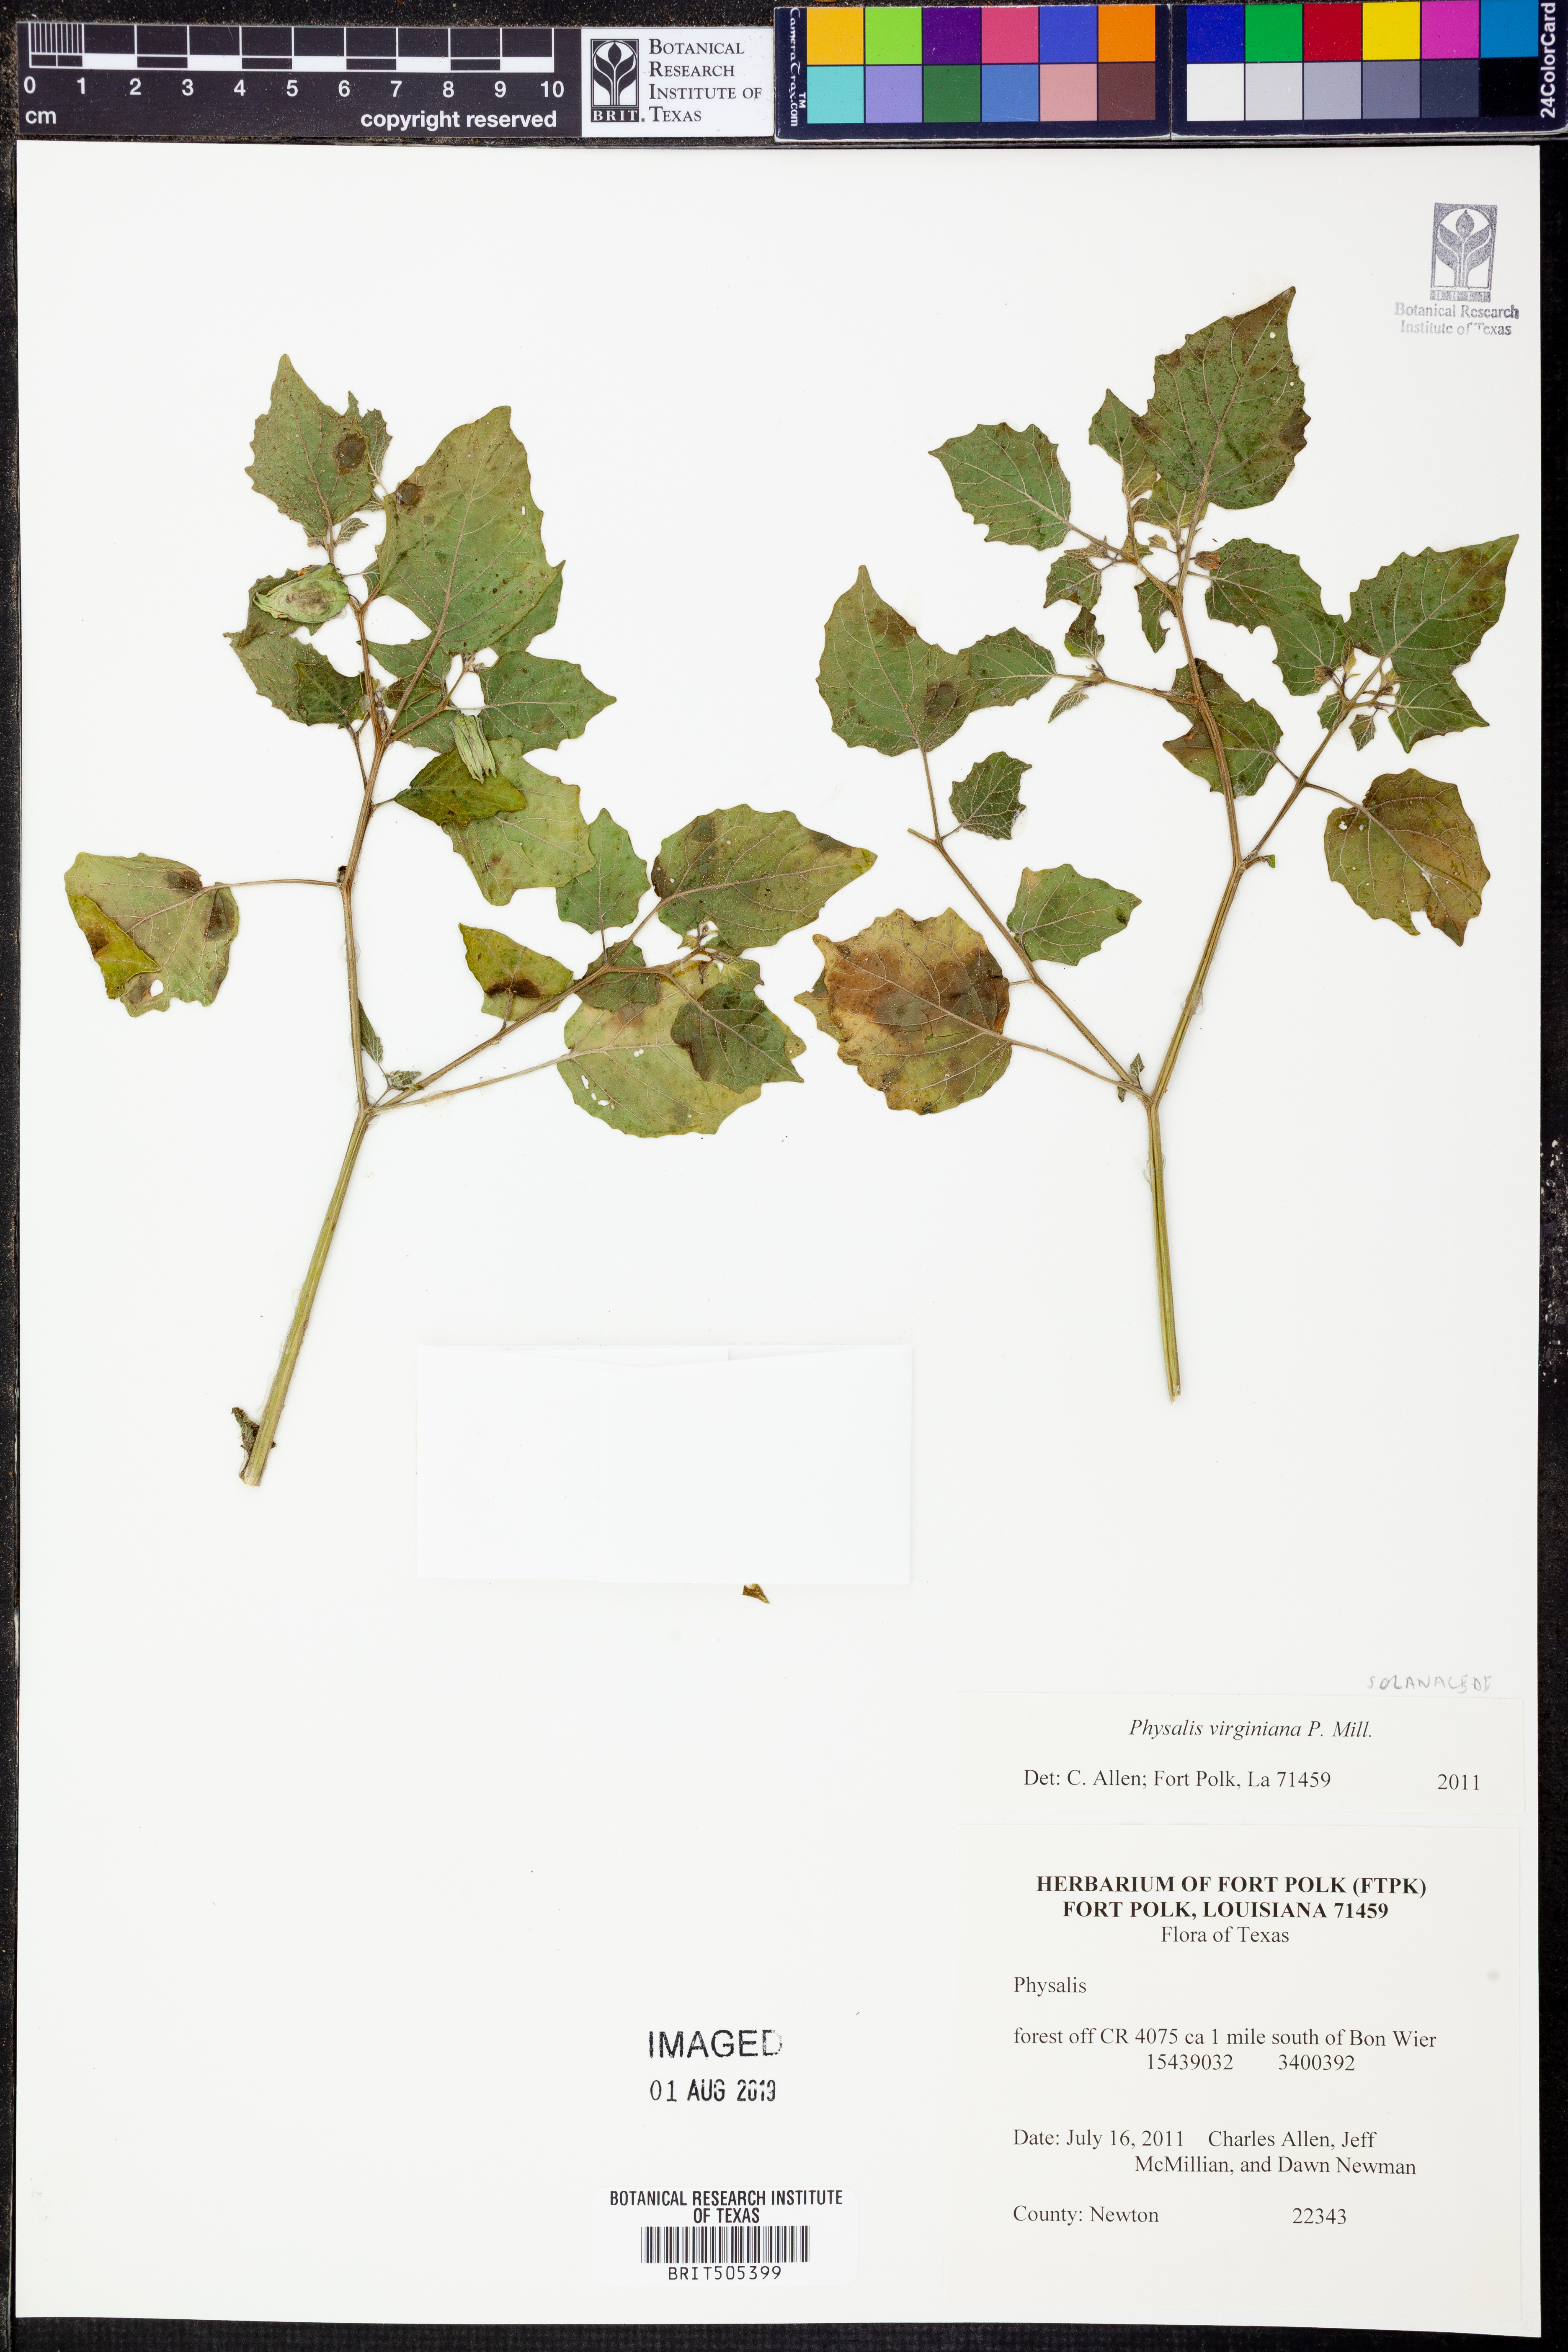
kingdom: Plantae
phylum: Tracheophyta
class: Magnoliopsida
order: Solanales
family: Solanaceae
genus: Physalis
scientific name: Physalis virginiana
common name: Virginia ground-cherry
